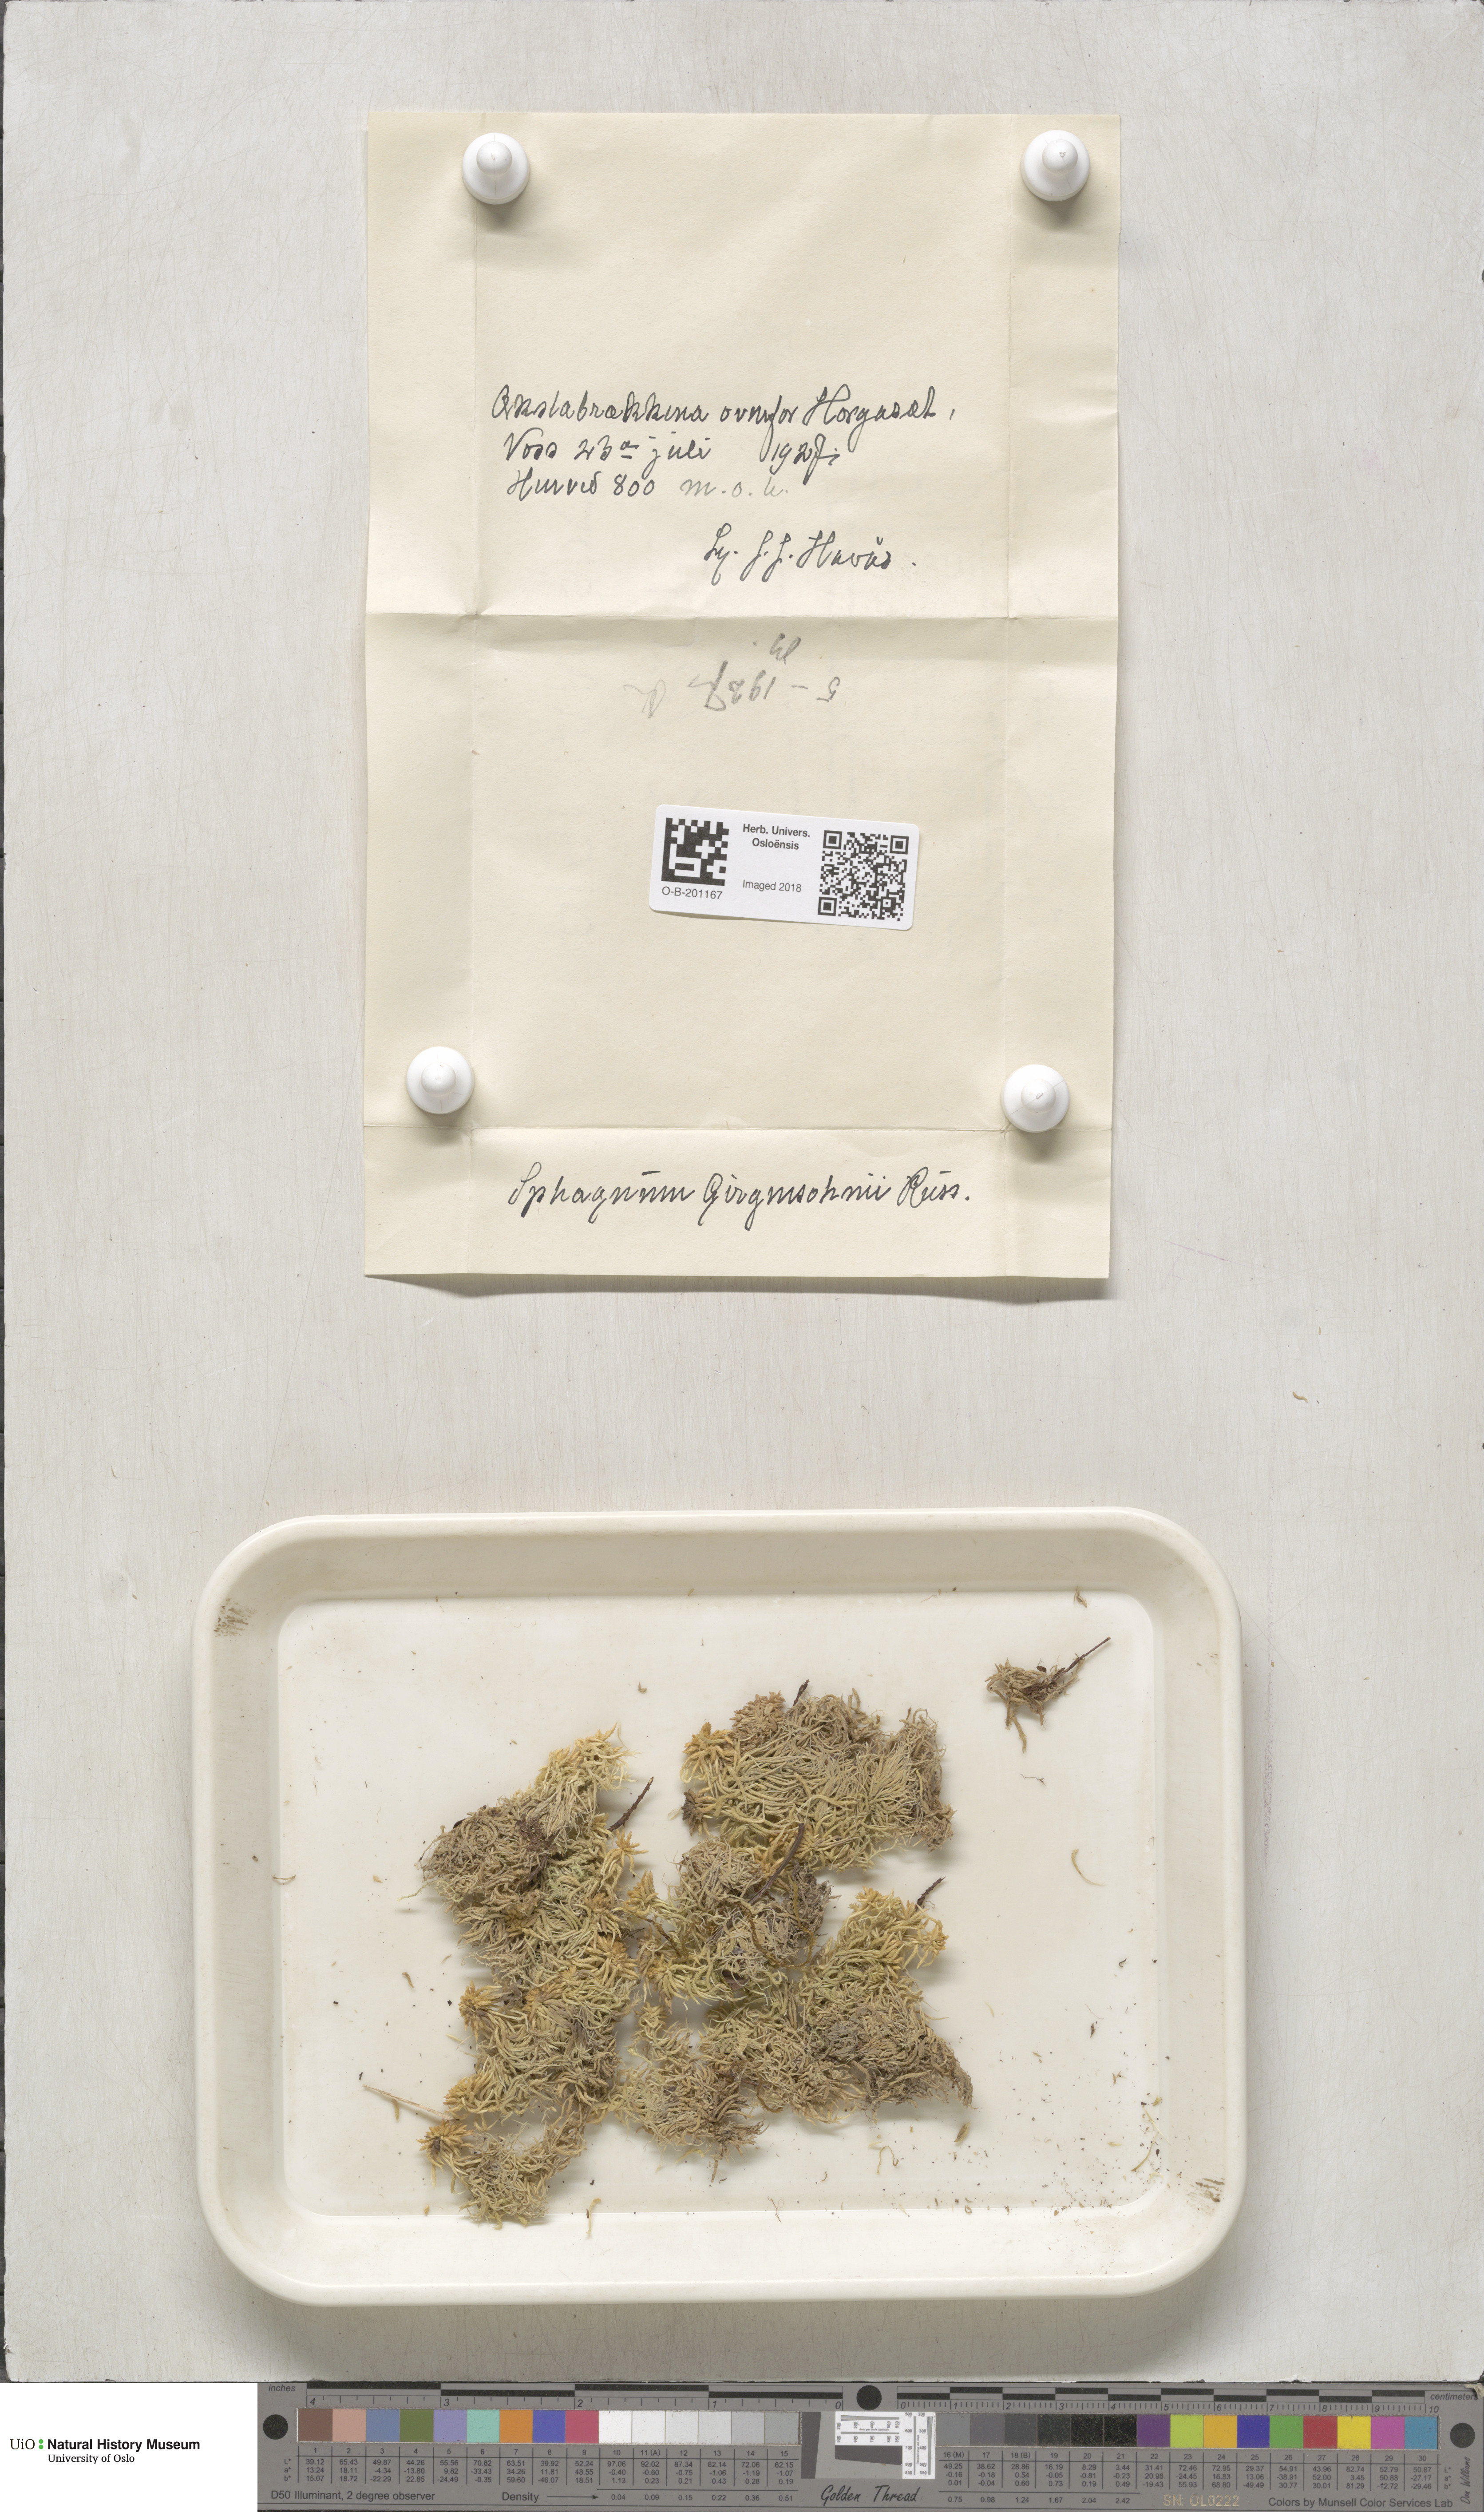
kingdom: Plantae
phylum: Bryophyta
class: Sphagnopsida
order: Sphagnales
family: Sphagnaceae
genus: Sphagnum
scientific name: Sphagnum girgensohnii
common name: Girgensohn's peat moss
